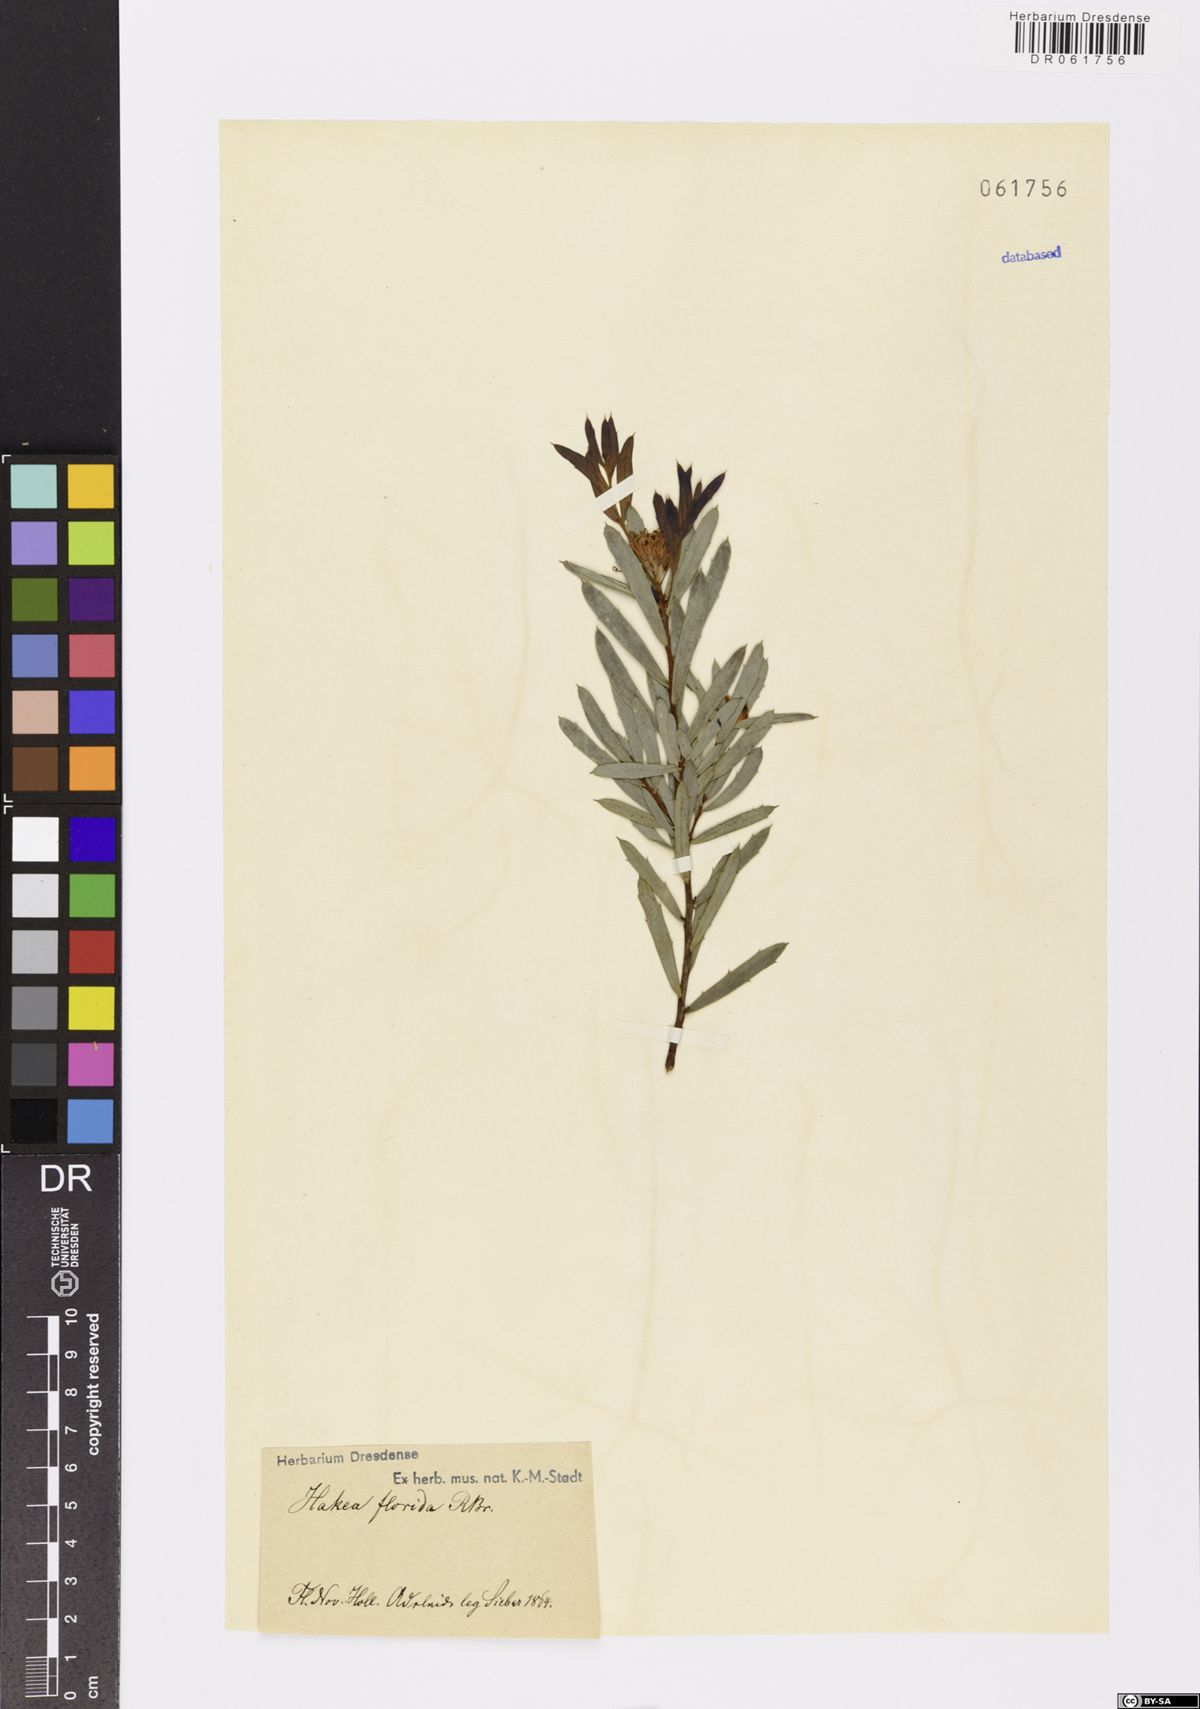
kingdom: Plantae
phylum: Tracheophyta
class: Magnoliopsida
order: Proteales
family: Proteaceae
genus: Hakea
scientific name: Hakea florida
